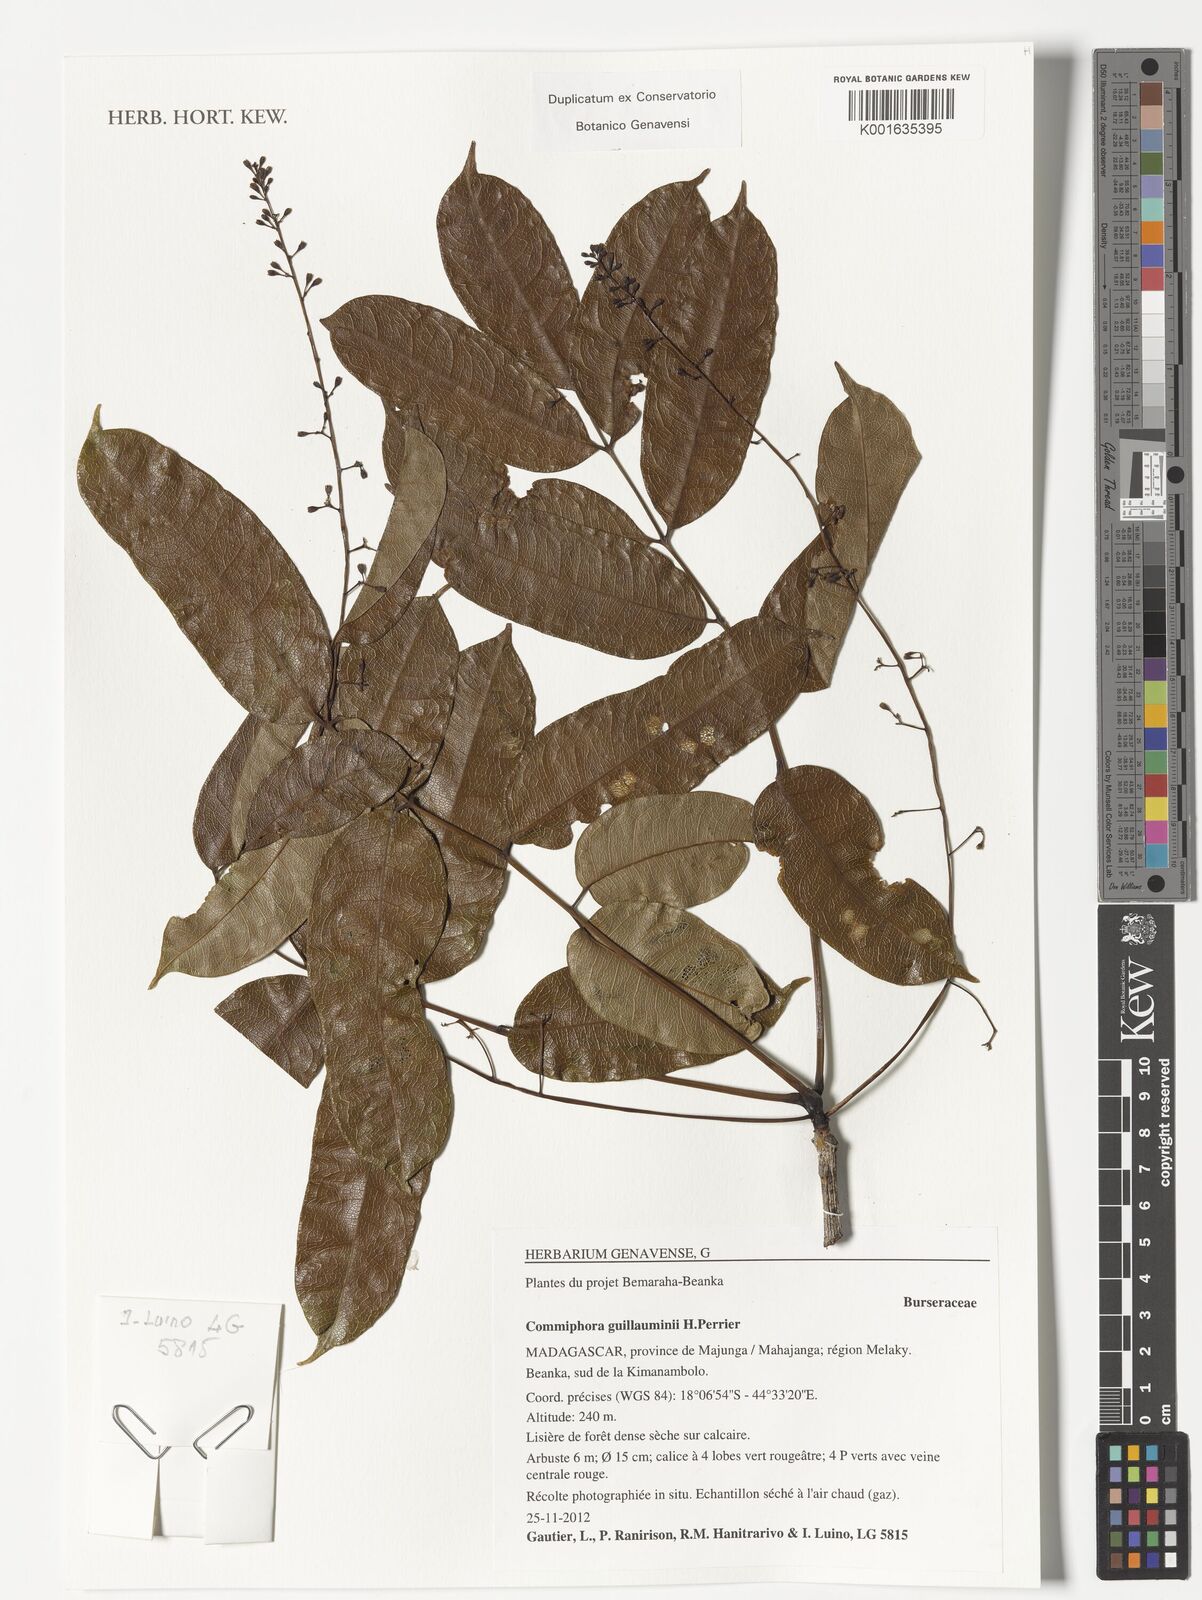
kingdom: Plantae
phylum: Tracheophyta
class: Magnoliopsida
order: Sapindales
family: Burseraceae
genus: Commiphora
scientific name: Commiphora guillauminii
